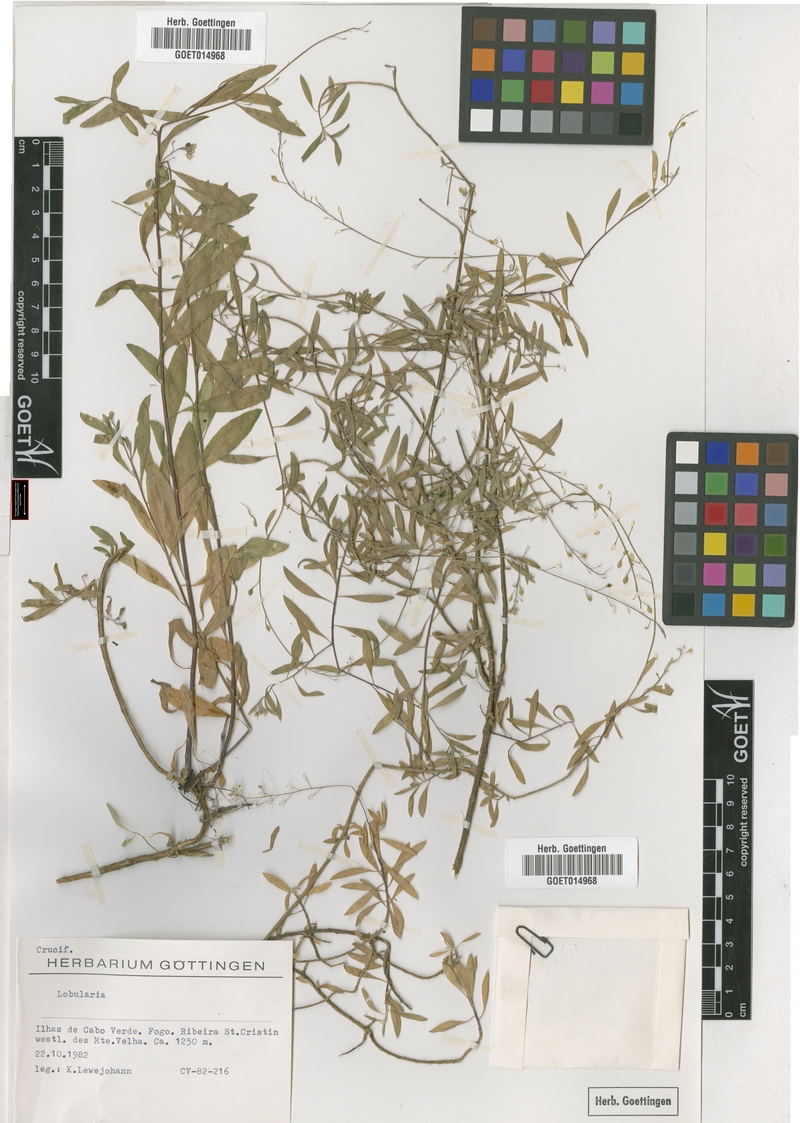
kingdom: Plantae
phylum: Tracheophyta
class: Magnoliopsida
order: Brassicales
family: Brassicaceae
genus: Lobularia
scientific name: Lobularia
